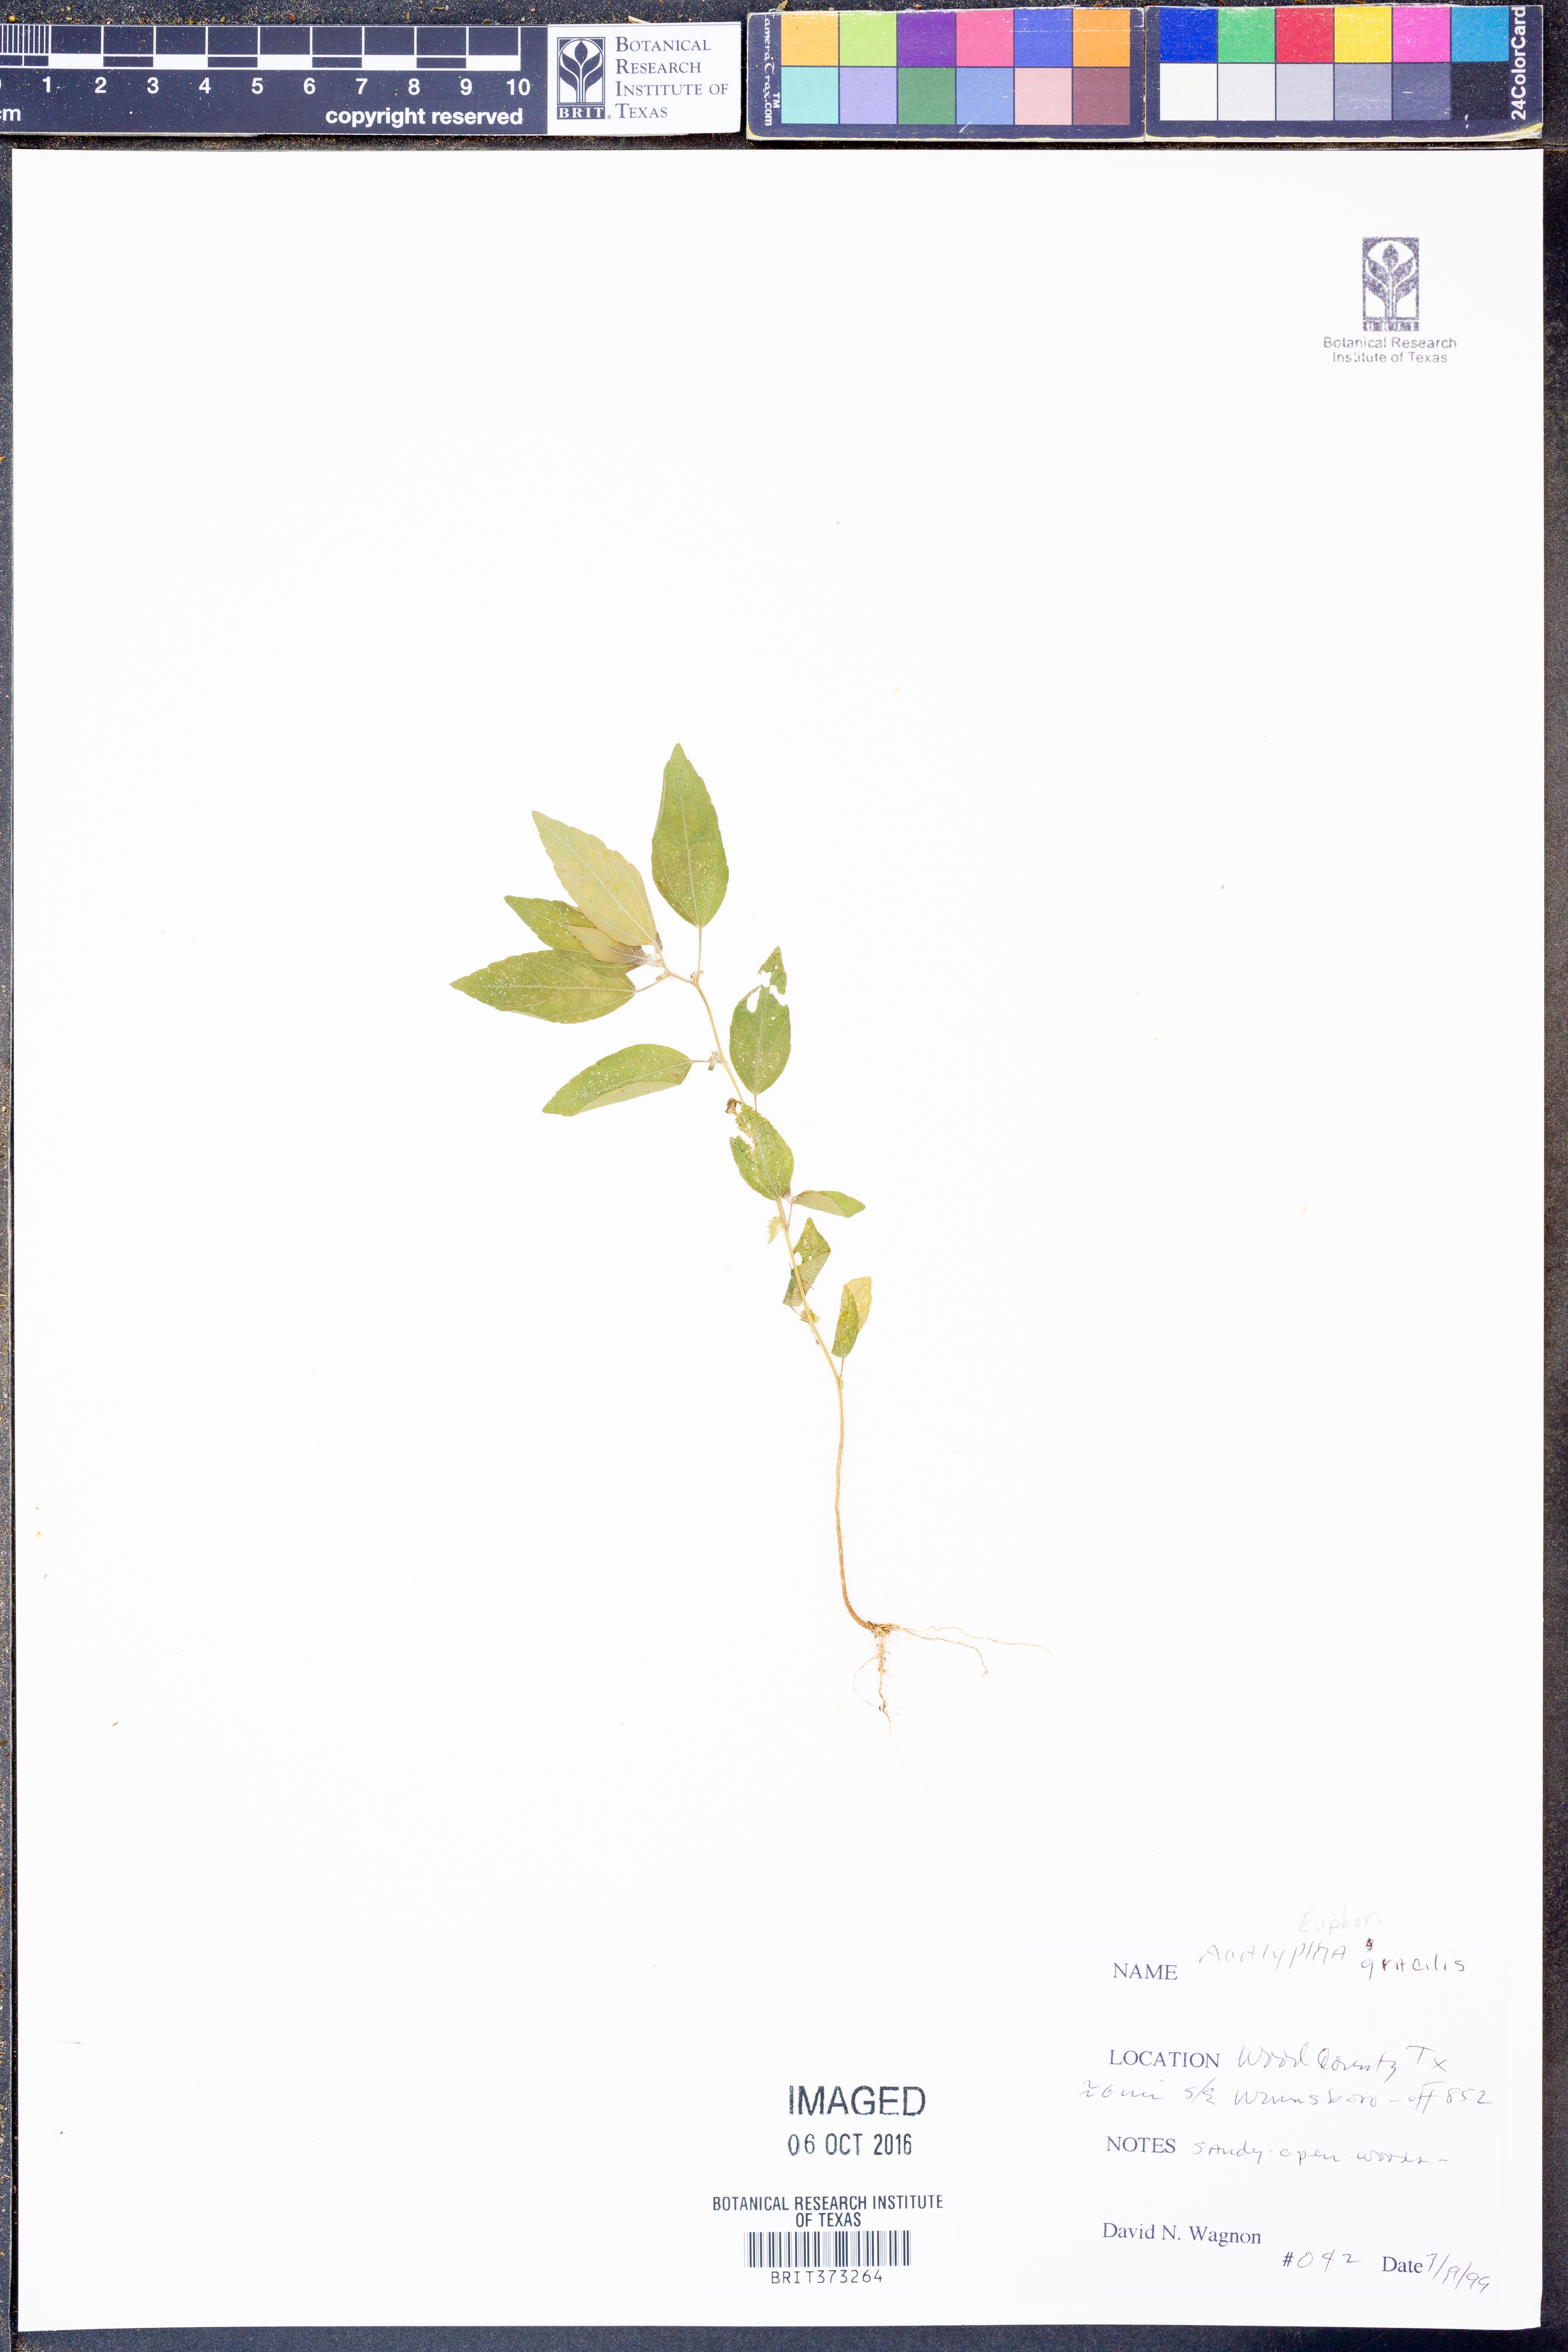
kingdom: Plantae
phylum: Tracheophyta
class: Magnoliopsida
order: Malpighiales
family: Euphorbiaceae
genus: Acalypha
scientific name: Acalypha gracilis
